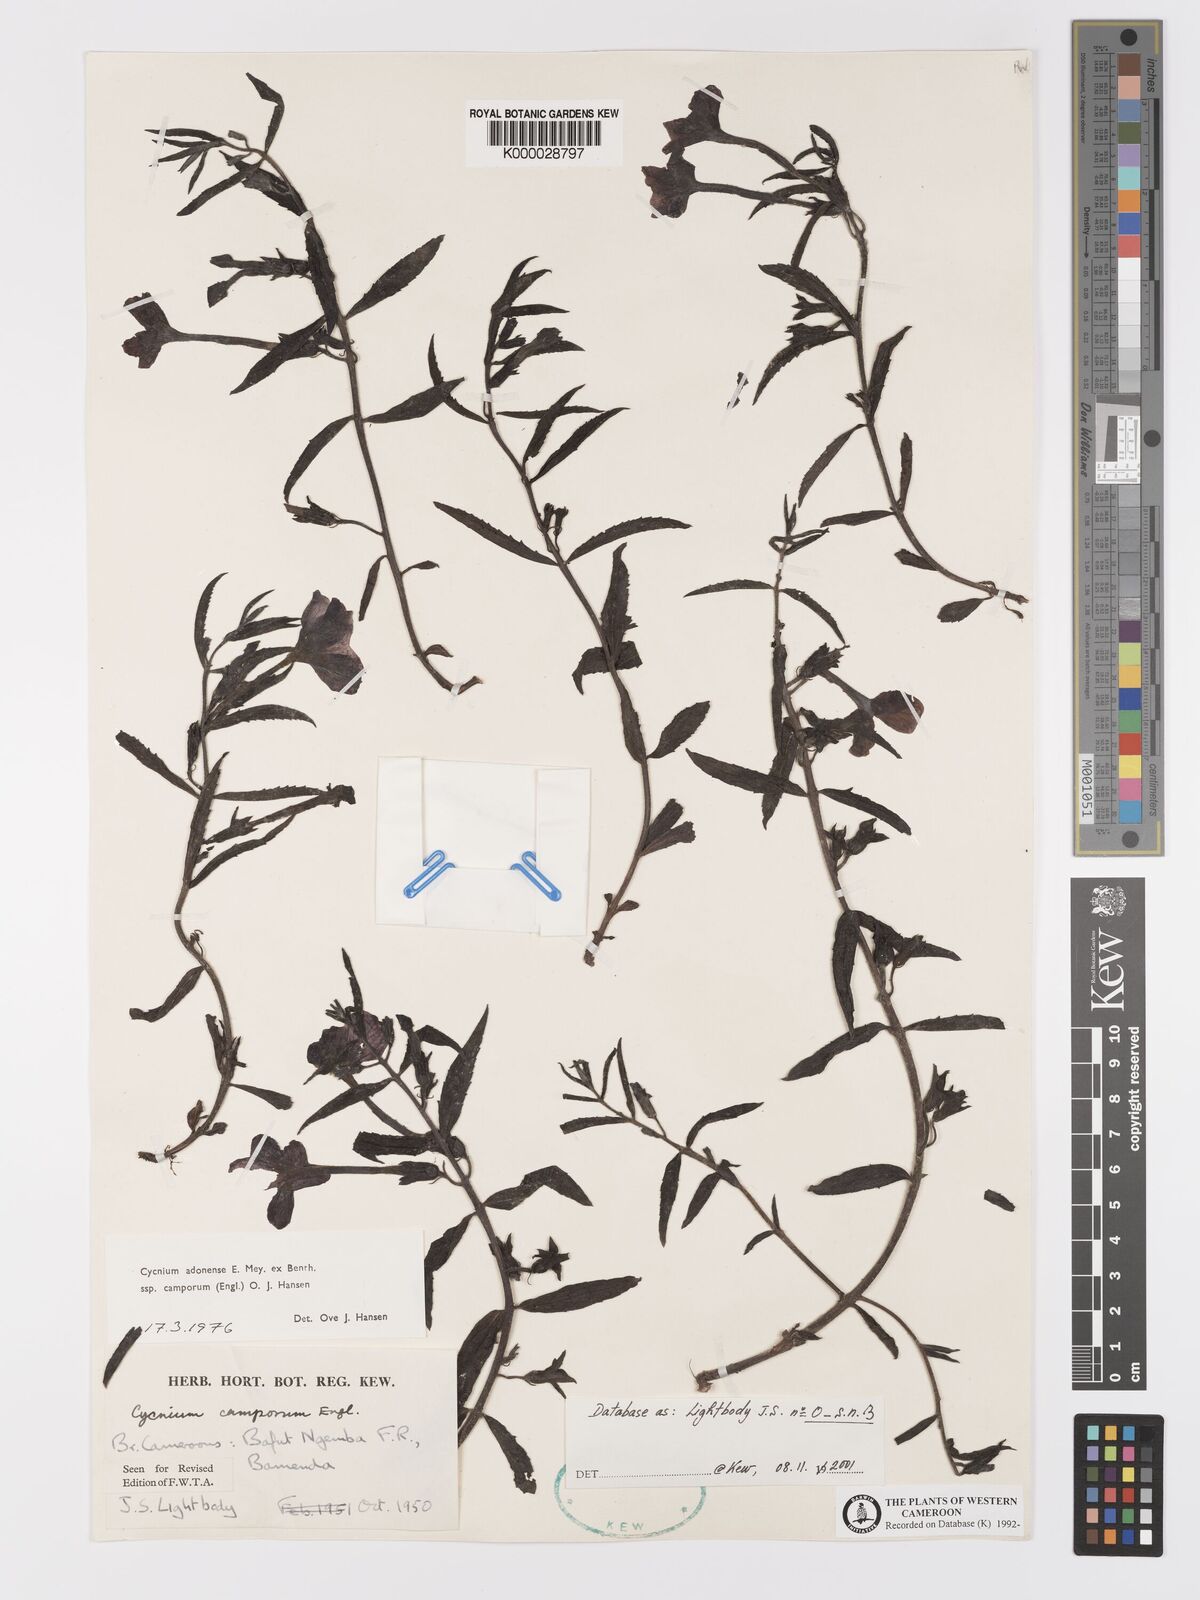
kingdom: Plantae
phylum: Tracheophyta
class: Magnoliopsida
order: Lamiales
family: Orobanchaceae
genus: Cycnium
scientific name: Cycnium adoense
